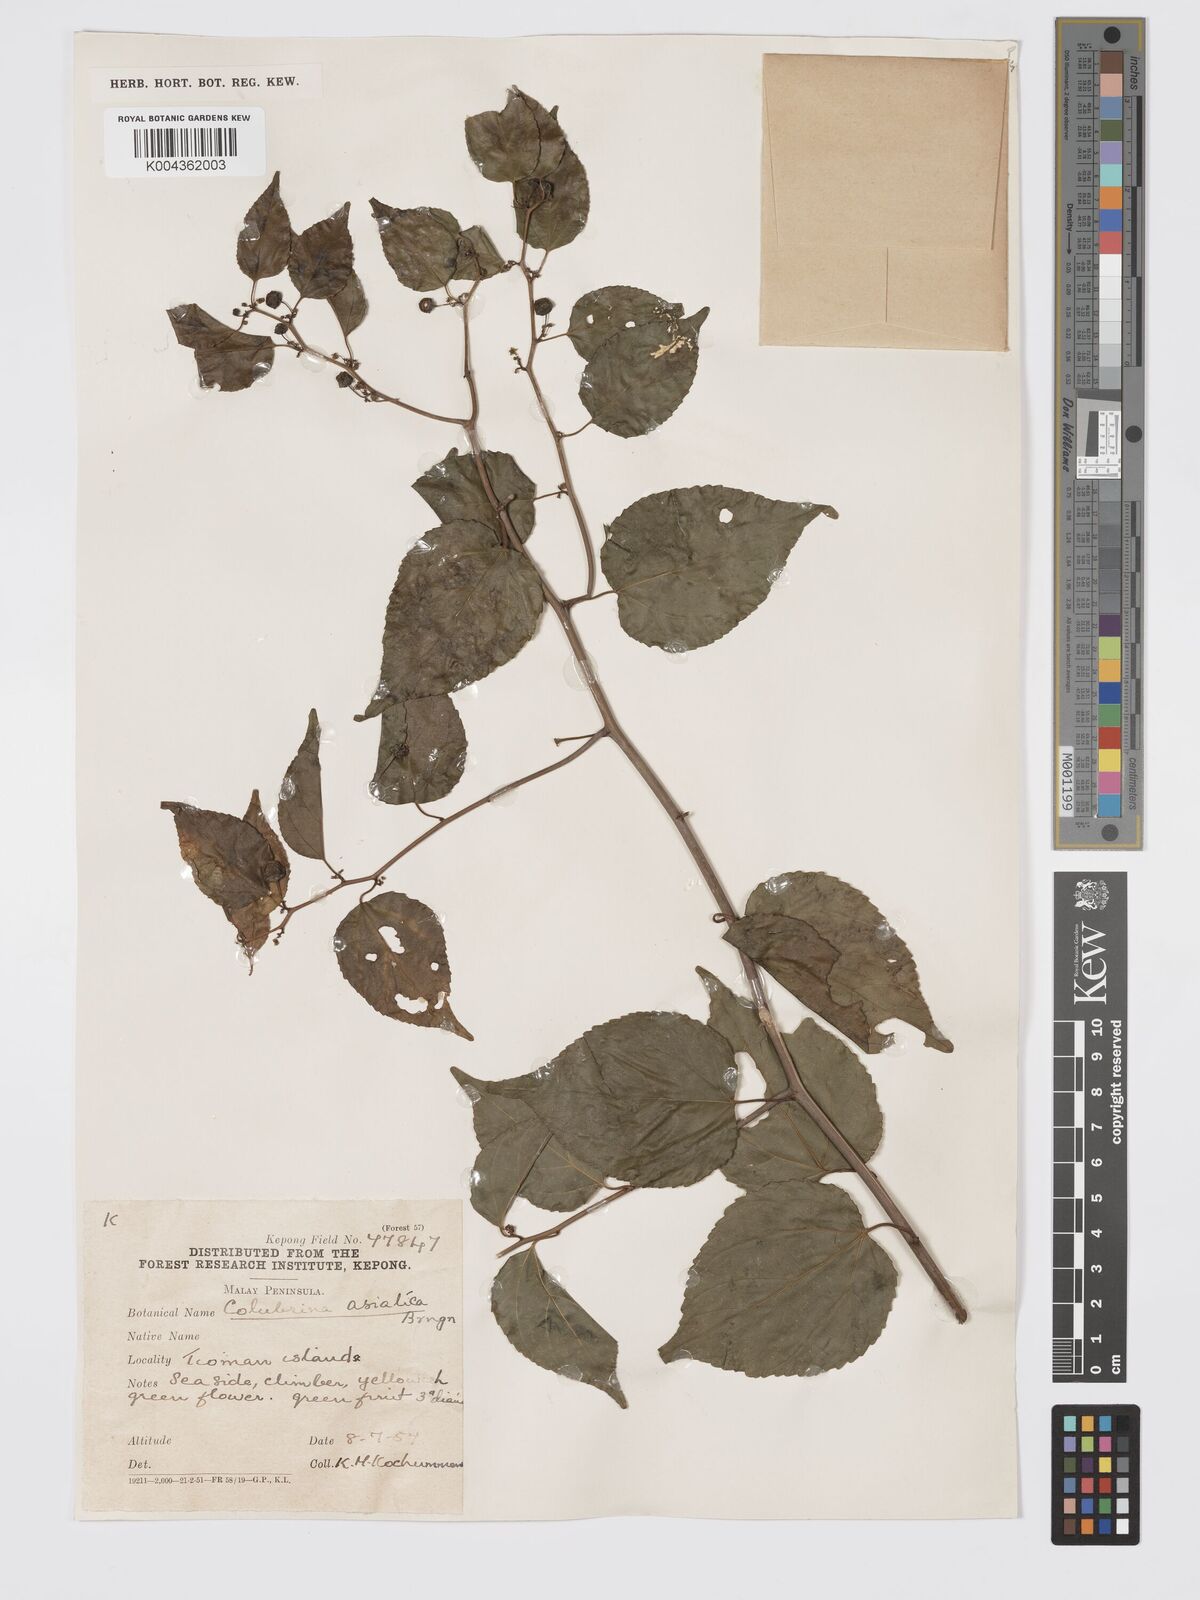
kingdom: Plantae
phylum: Tracheophyta
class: Magnoliopsida
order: Rosales
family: Rhamnaceae
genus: Colubrina
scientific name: Colubrina asiatica
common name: Asian nakedwood
